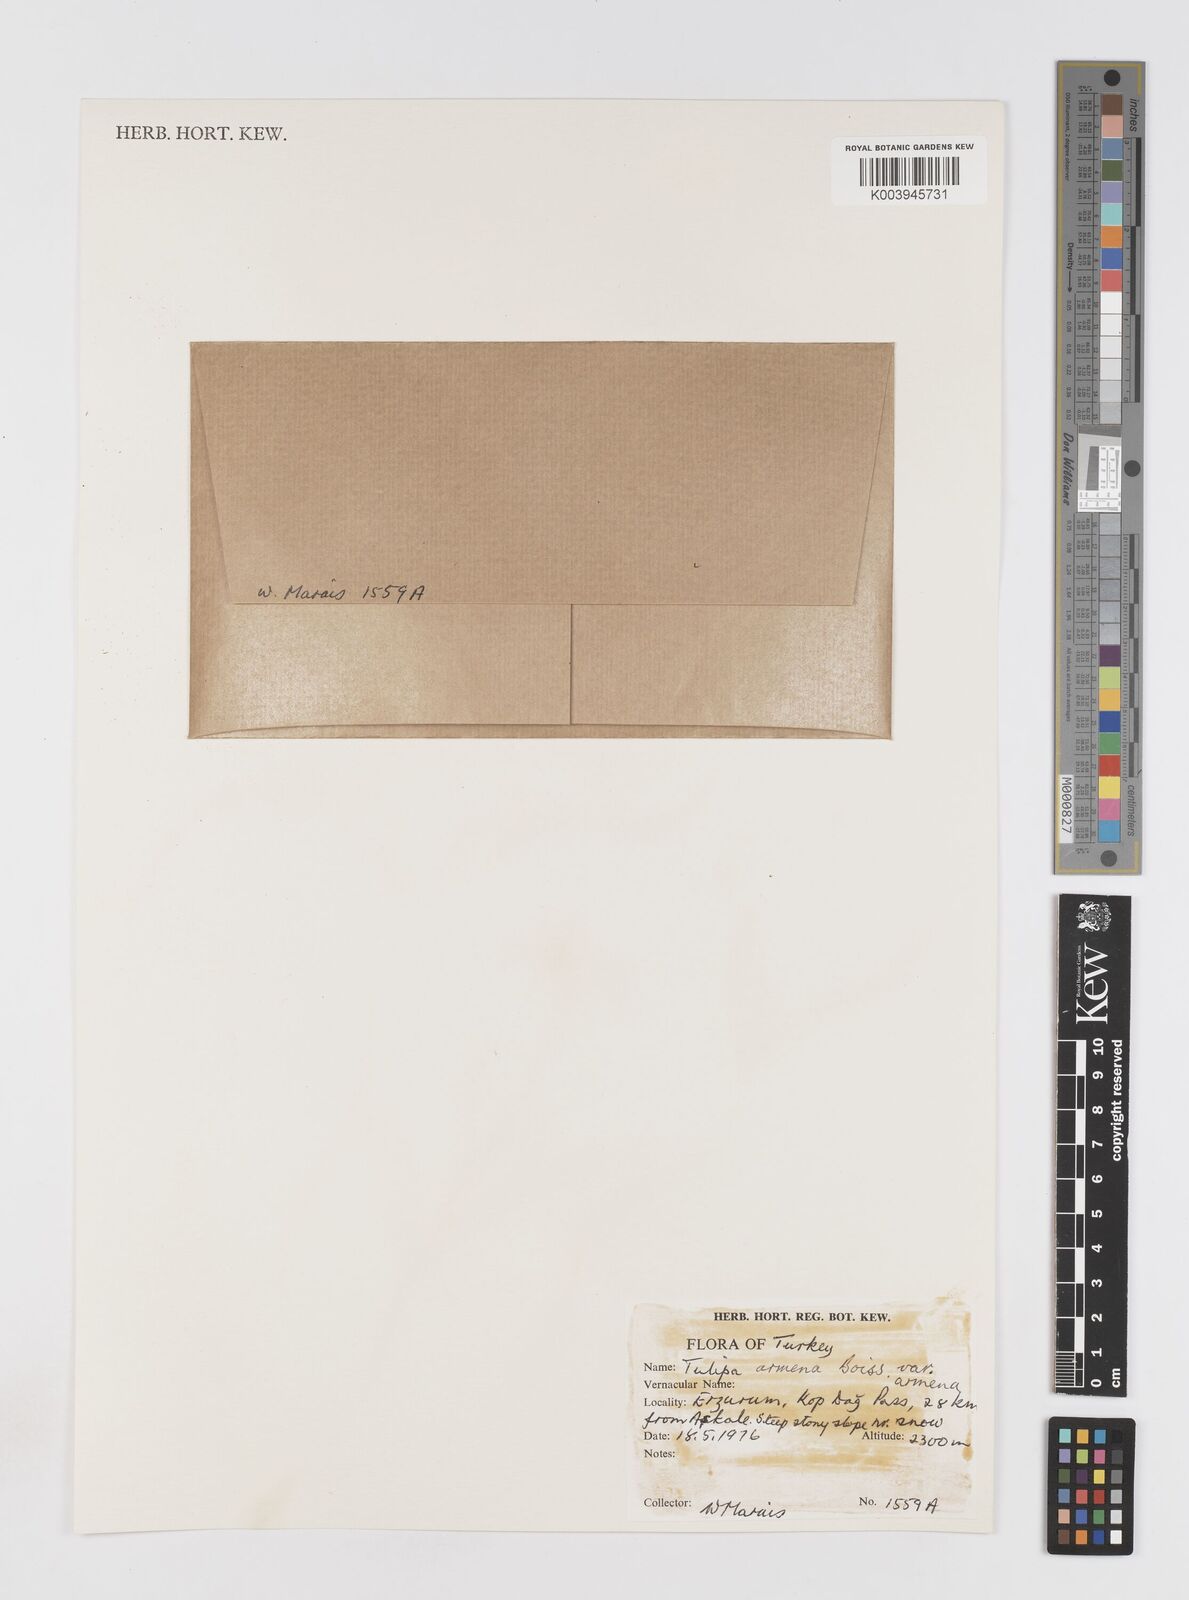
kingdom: Plantae
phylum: Tracheophyta
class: Liliopsida
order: Liliales
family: Liliaceae
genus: Tulipa
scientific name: Tulipa armena
